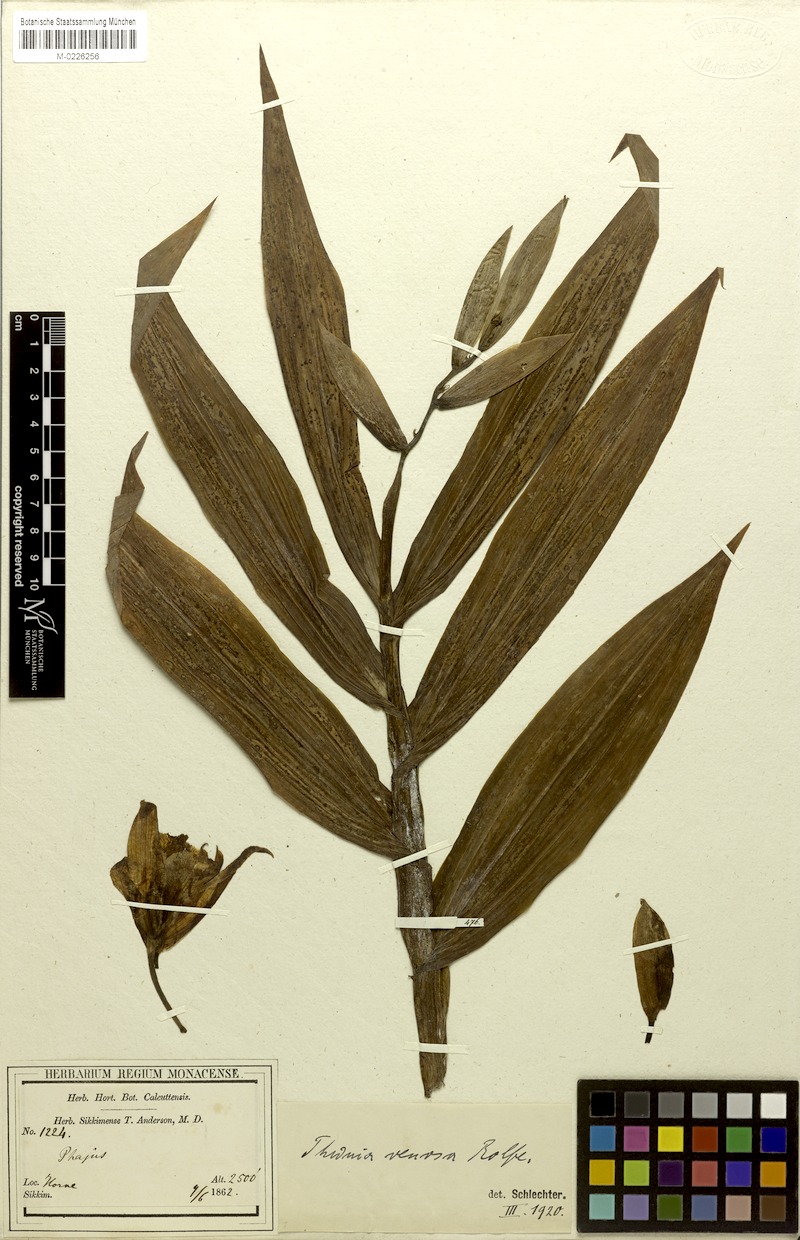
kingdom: Plantae
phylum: Tracheophyta
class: Liliopsida
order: Asparagales
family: Orchidaceae
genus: Thunia
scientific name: Thunia alba
